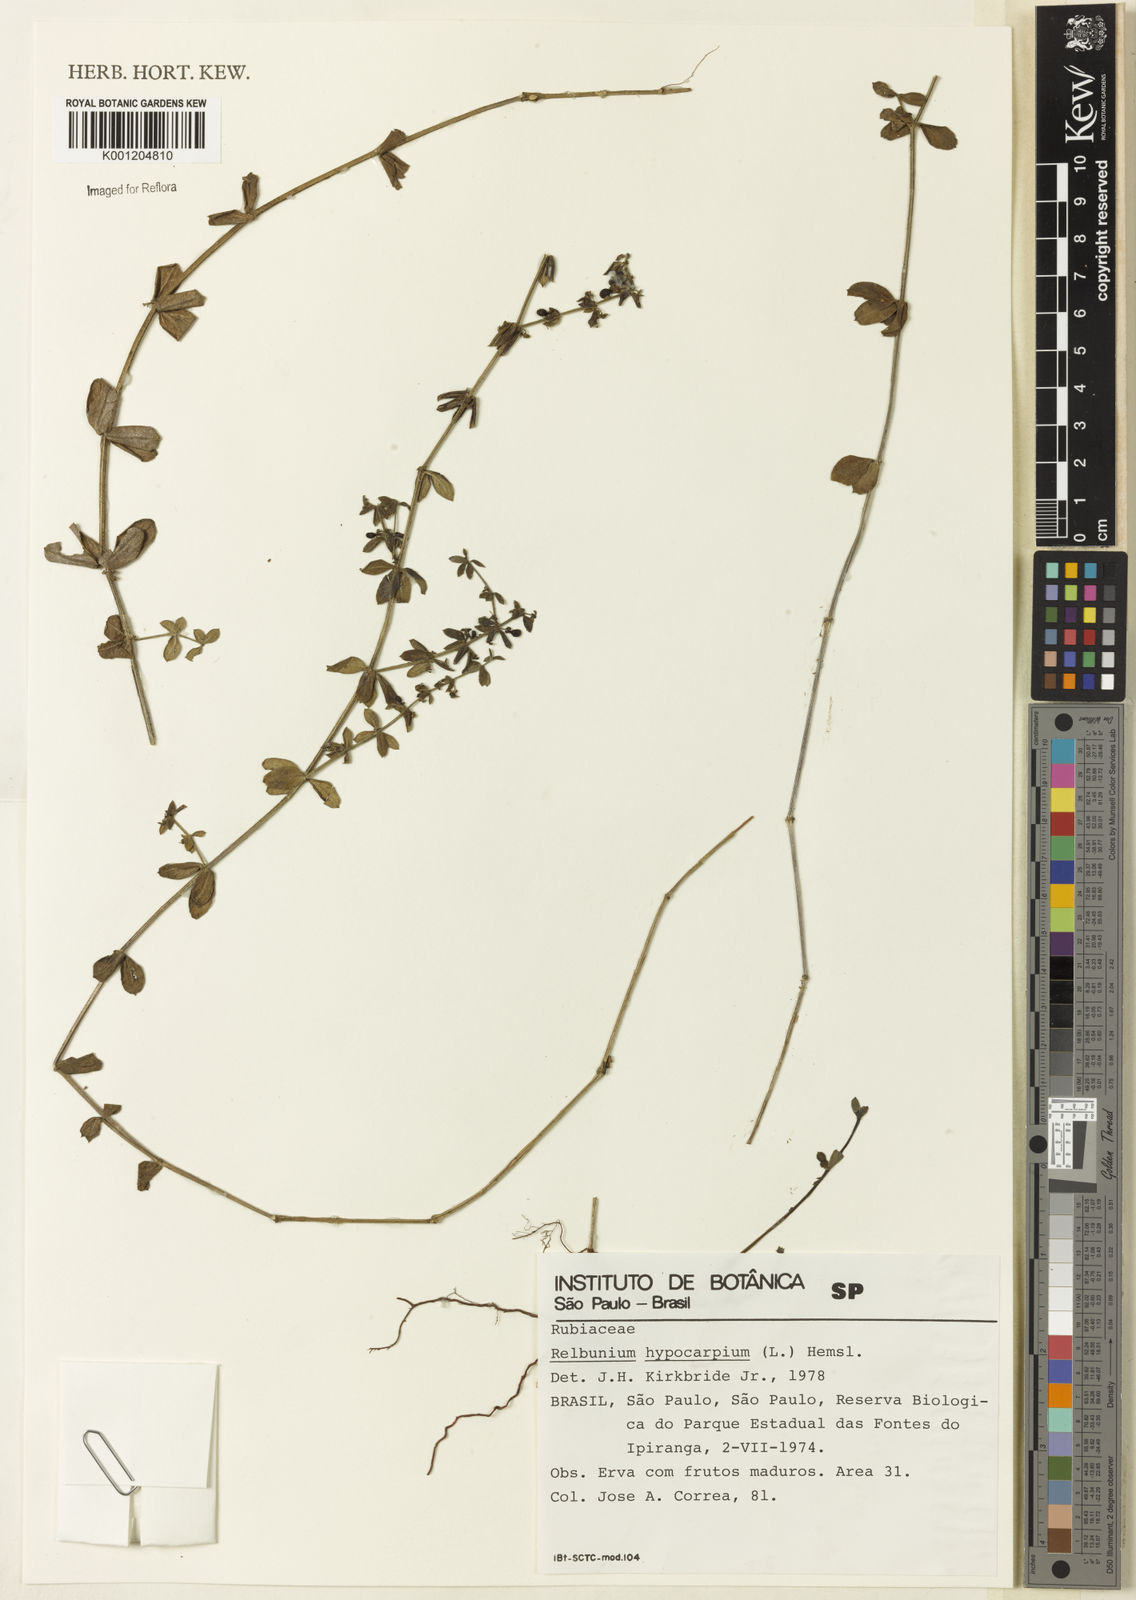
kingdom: Plantae
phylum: Tracheophyta
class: Magnoliopsida
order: Gentianales
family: Rubiaceae
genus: Galium
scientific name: Galium hypocarpium
